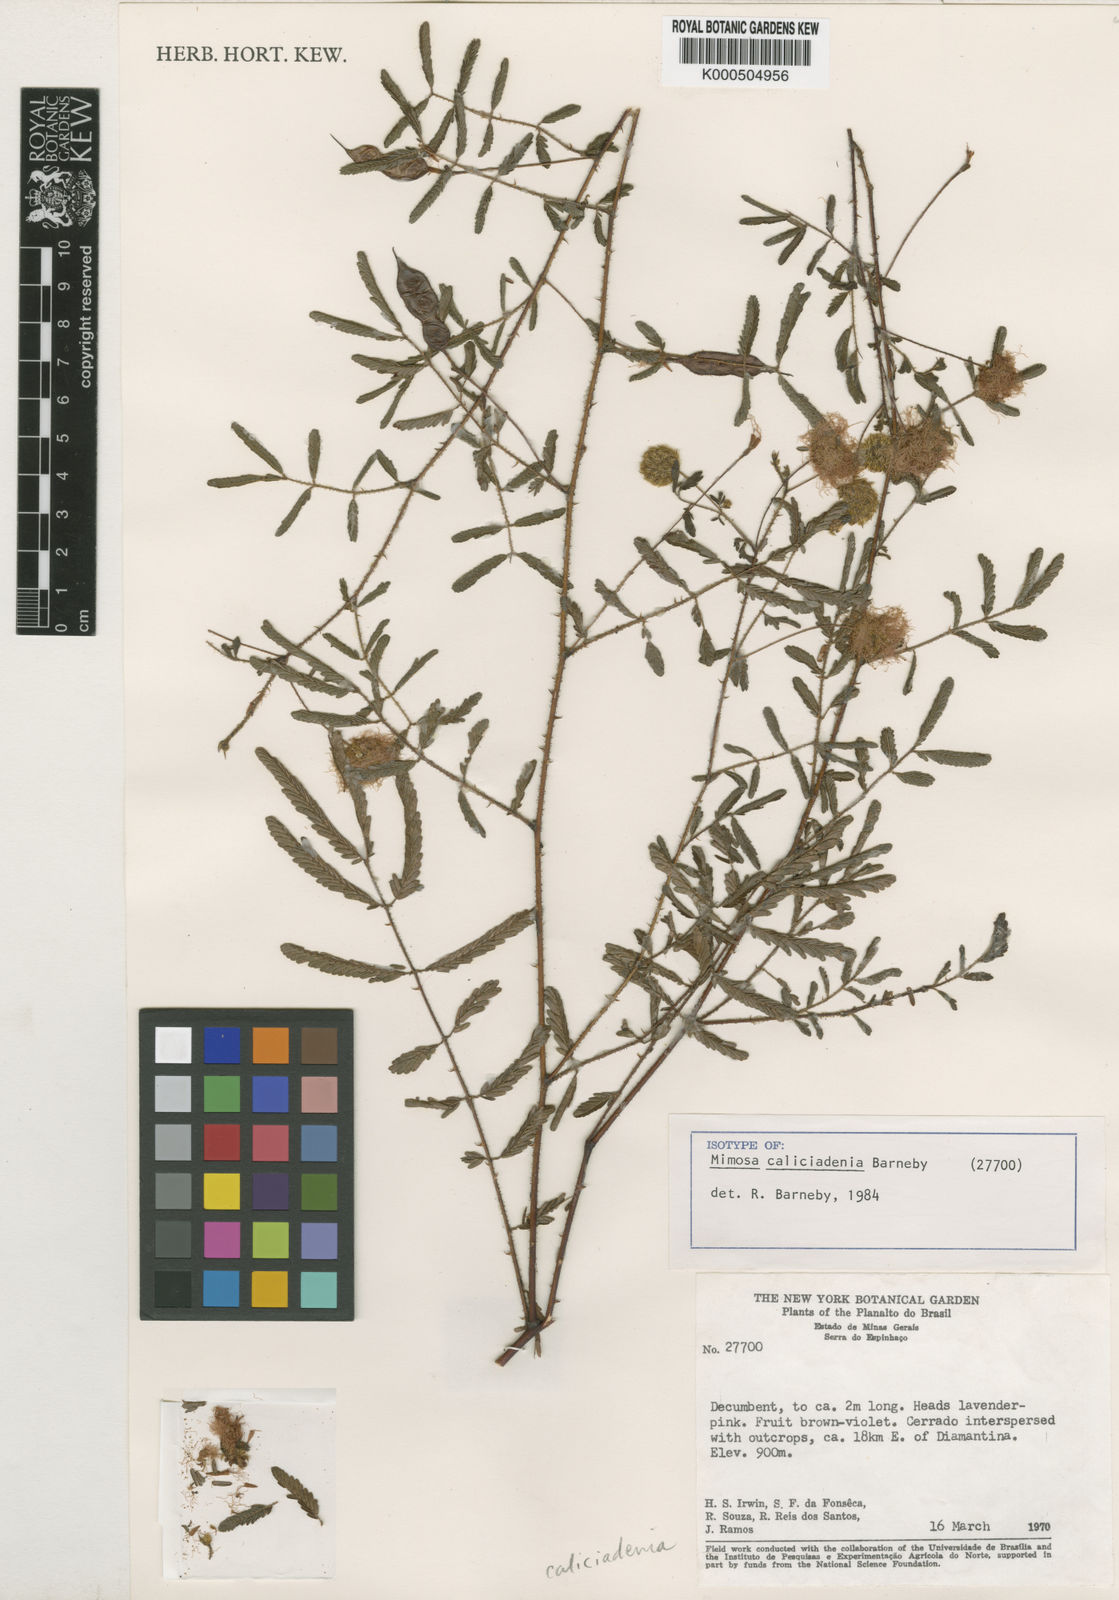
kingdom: Plantae
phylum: Tracheophyta
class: Magnoliopsida
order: Fabales
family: Fabaceae
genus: Mimosa
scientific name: Mimosa
